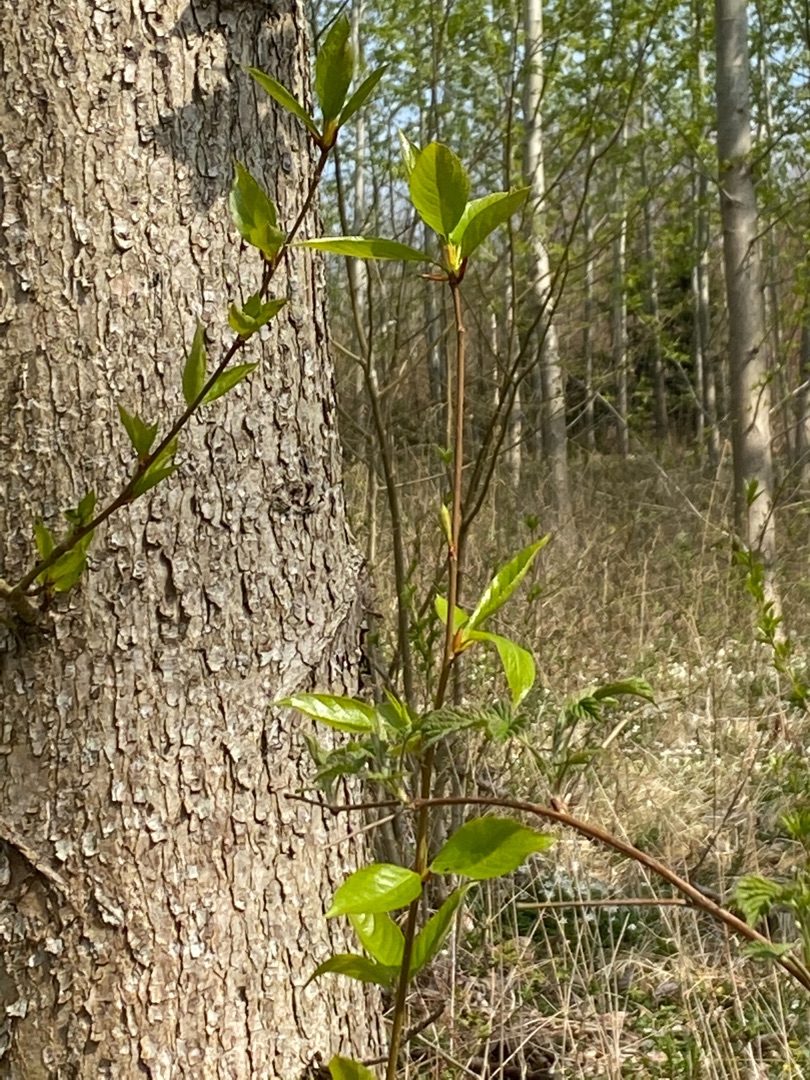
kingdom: Plantae
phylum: Tracheophyta
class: Magnoliopsida
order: Rosales
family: Rosaceae
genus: Prunus
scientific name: Prunus serotina
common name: Glansbladet hæg
